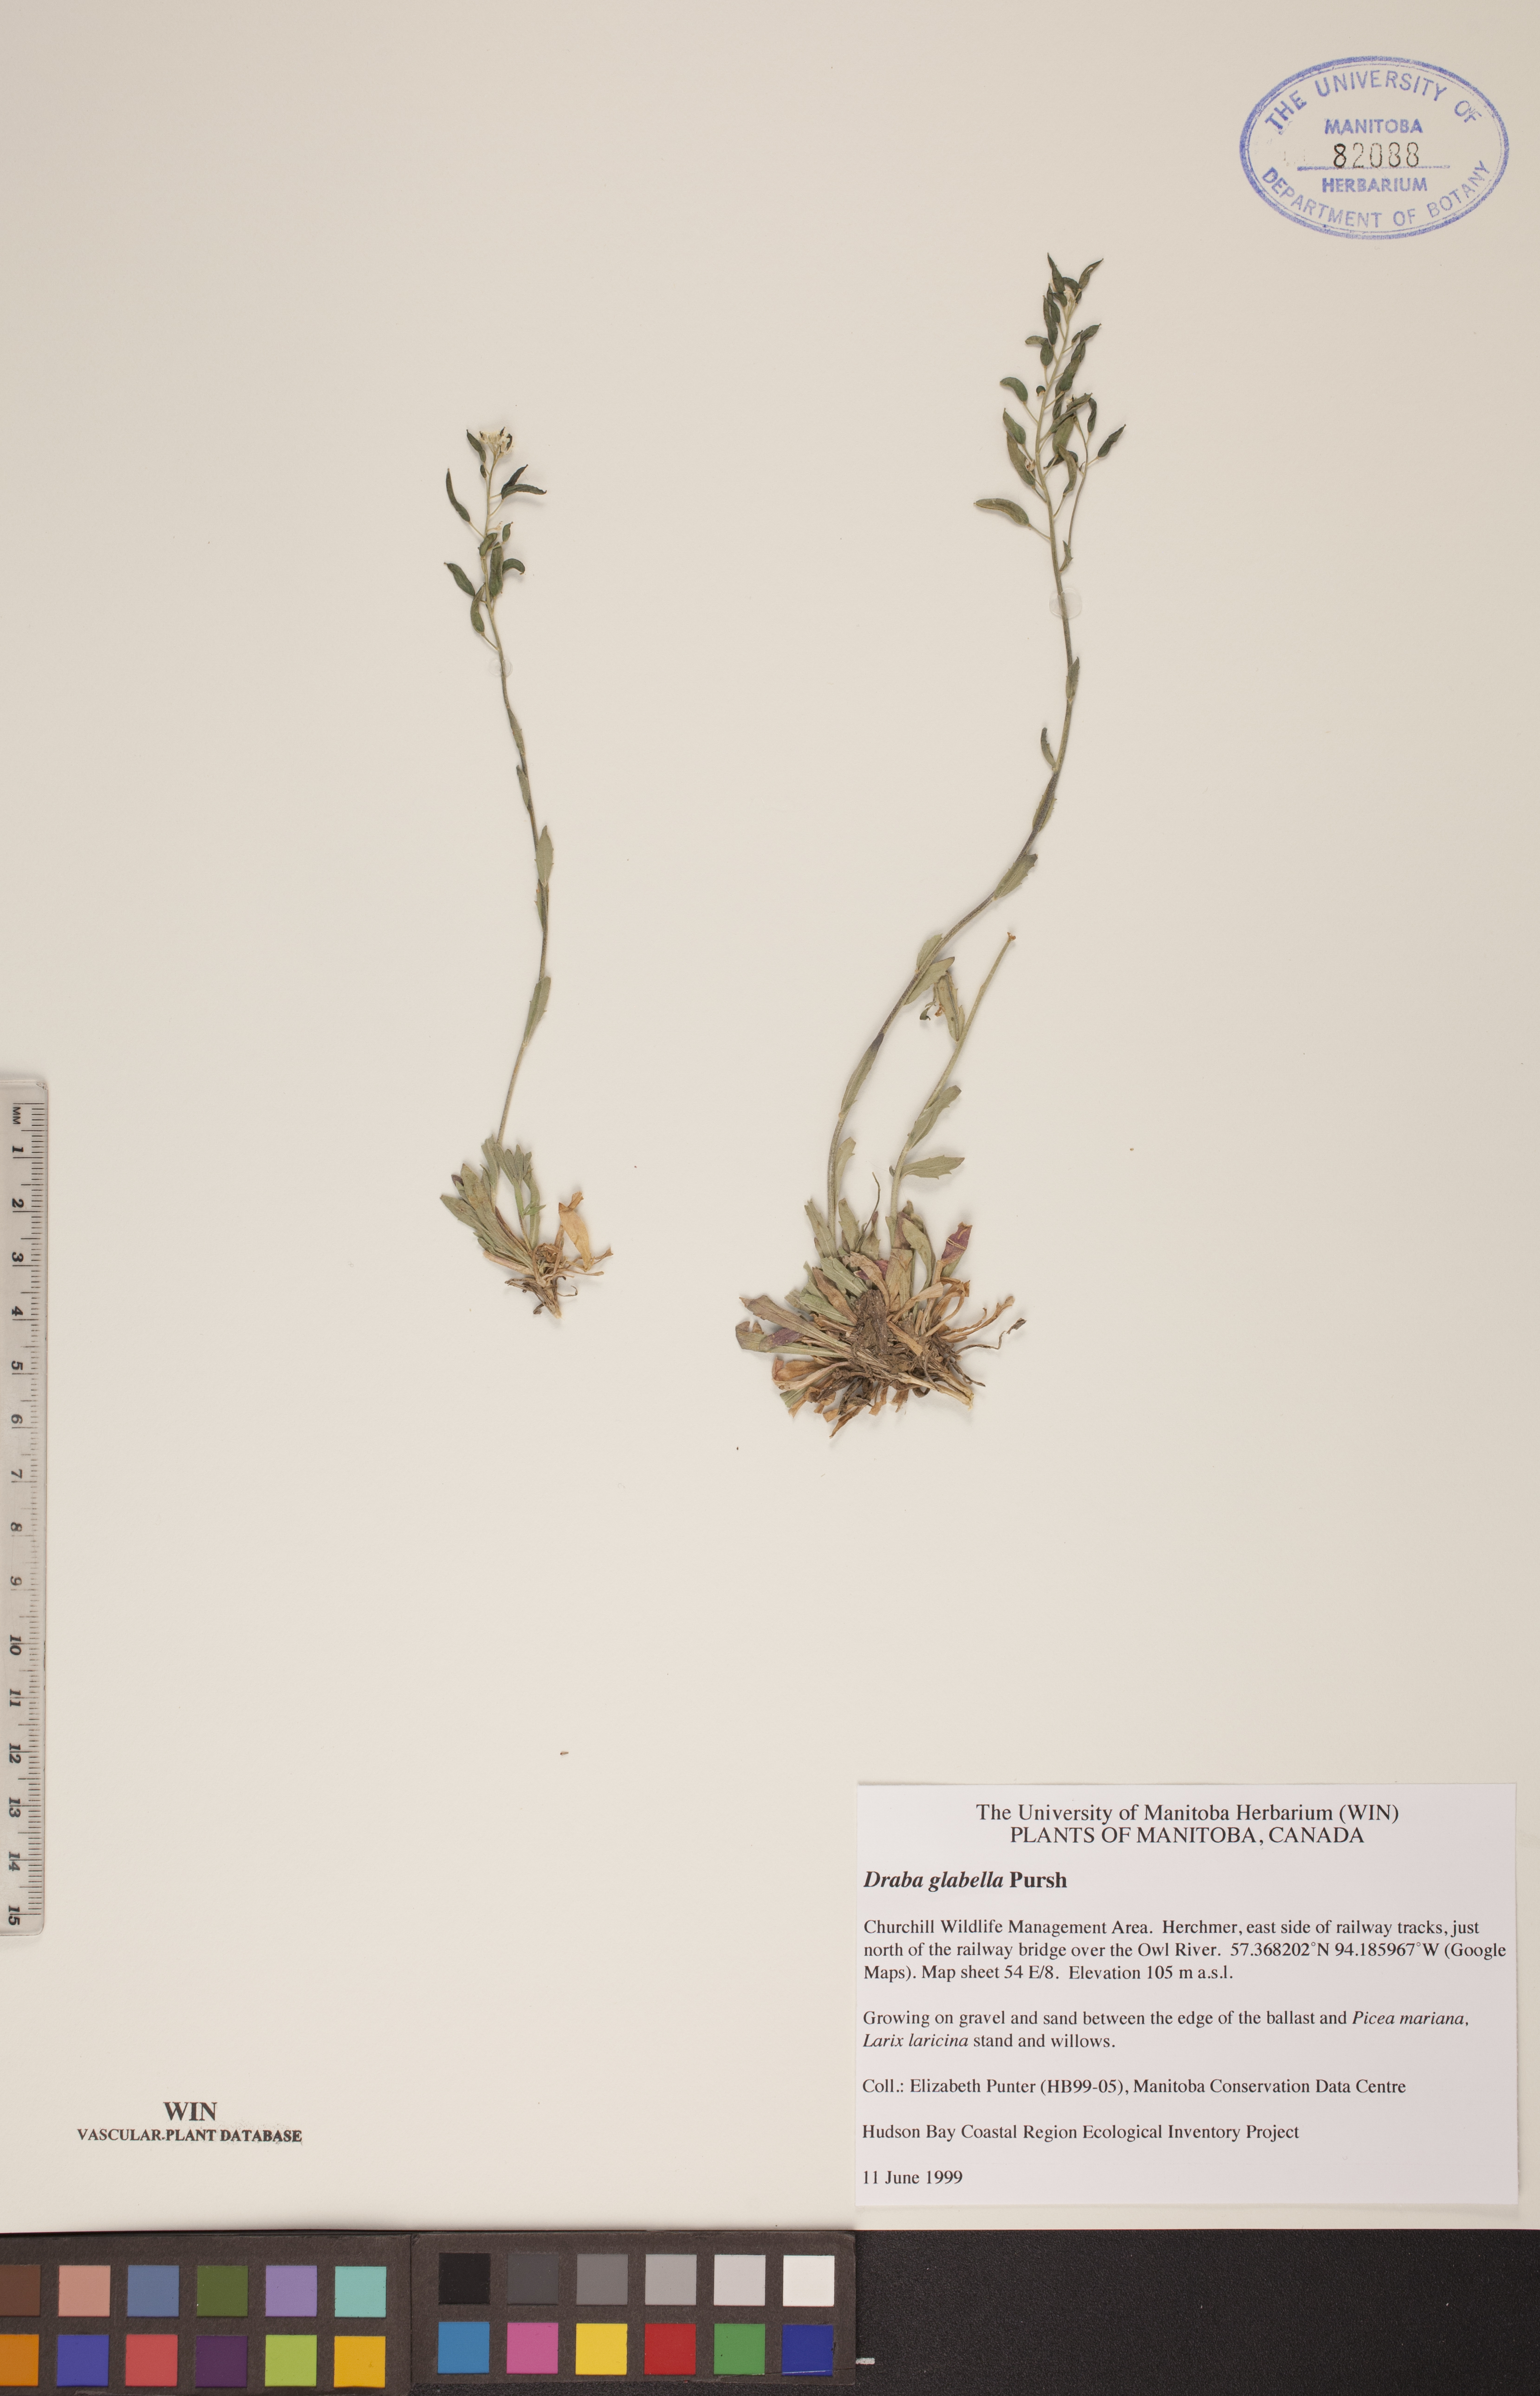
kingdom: Plantae
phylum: Tracheophyta
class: Magnoliopsida
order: Brassicales
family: Brassicaceae
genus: Draba
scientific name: Draba glabella
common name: Glaucous draba
